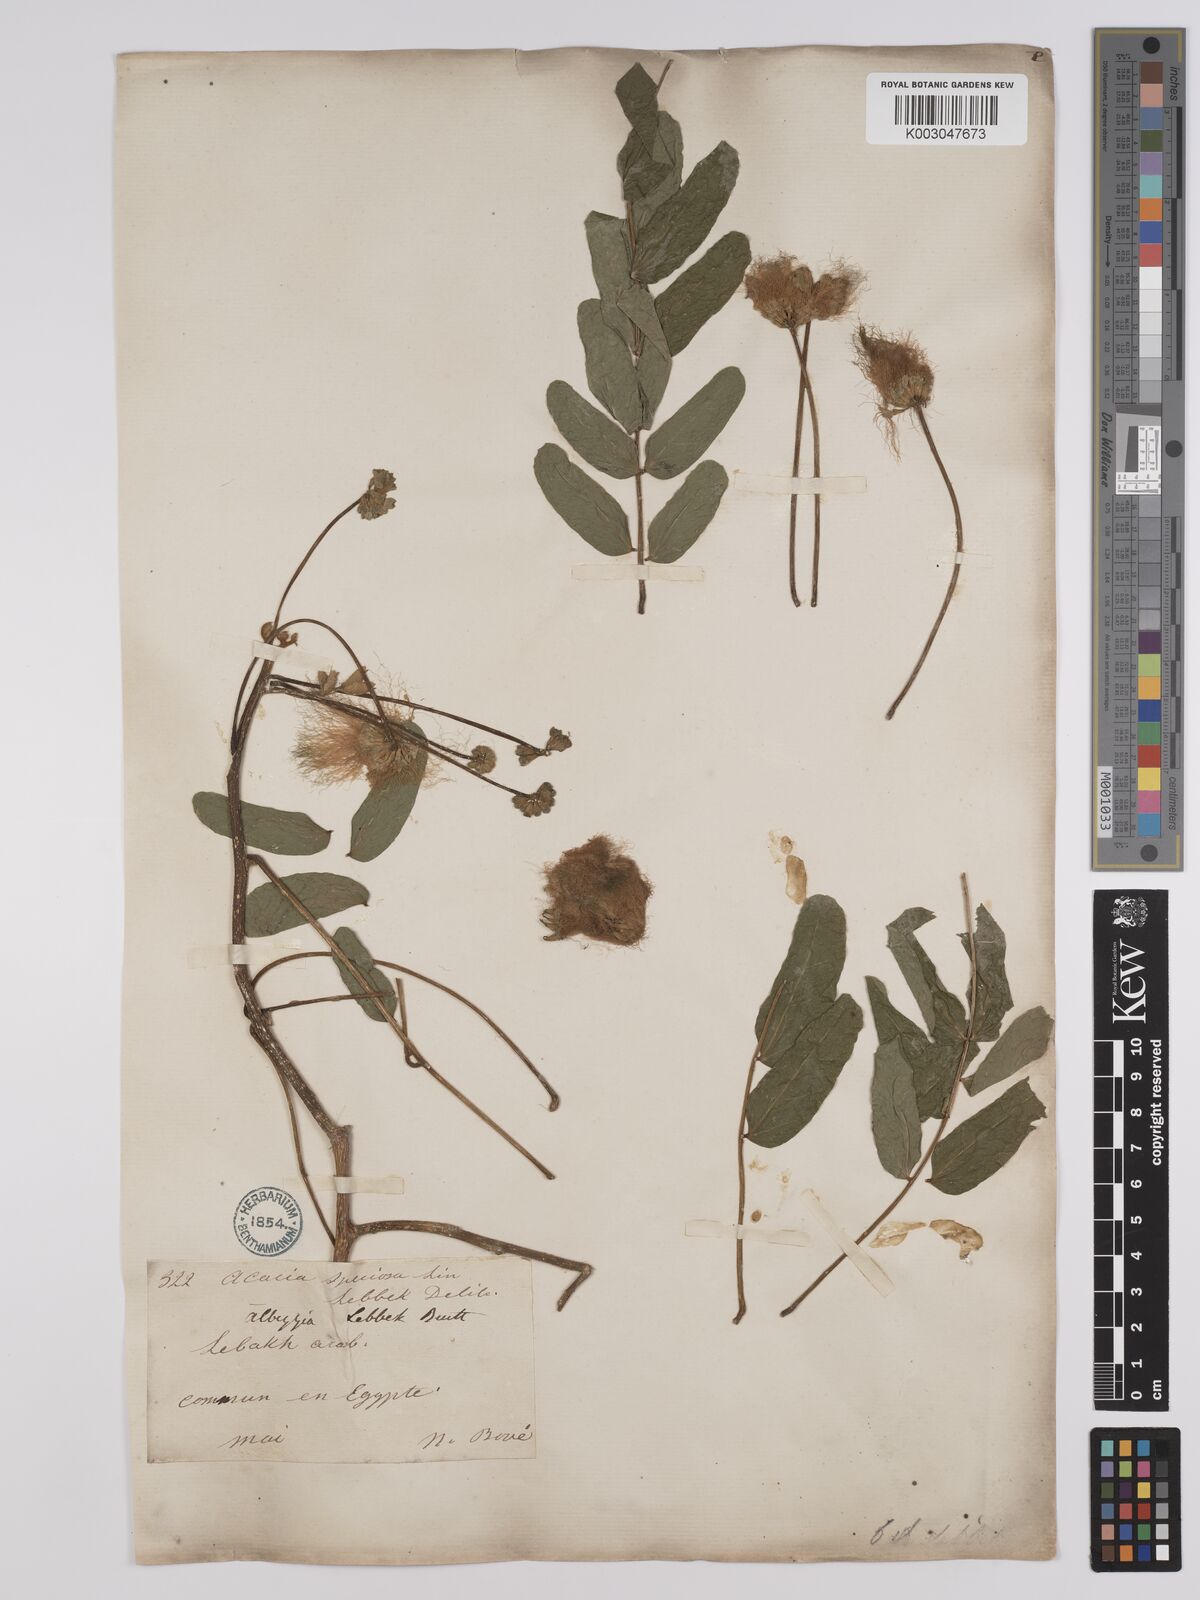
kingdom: Plantae
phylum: Tracheophyta
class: Magnoliopsida
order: Fabales
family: Fabaceae
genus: Albizia
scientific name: Albizia lebbeck
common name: Woman's tongue
